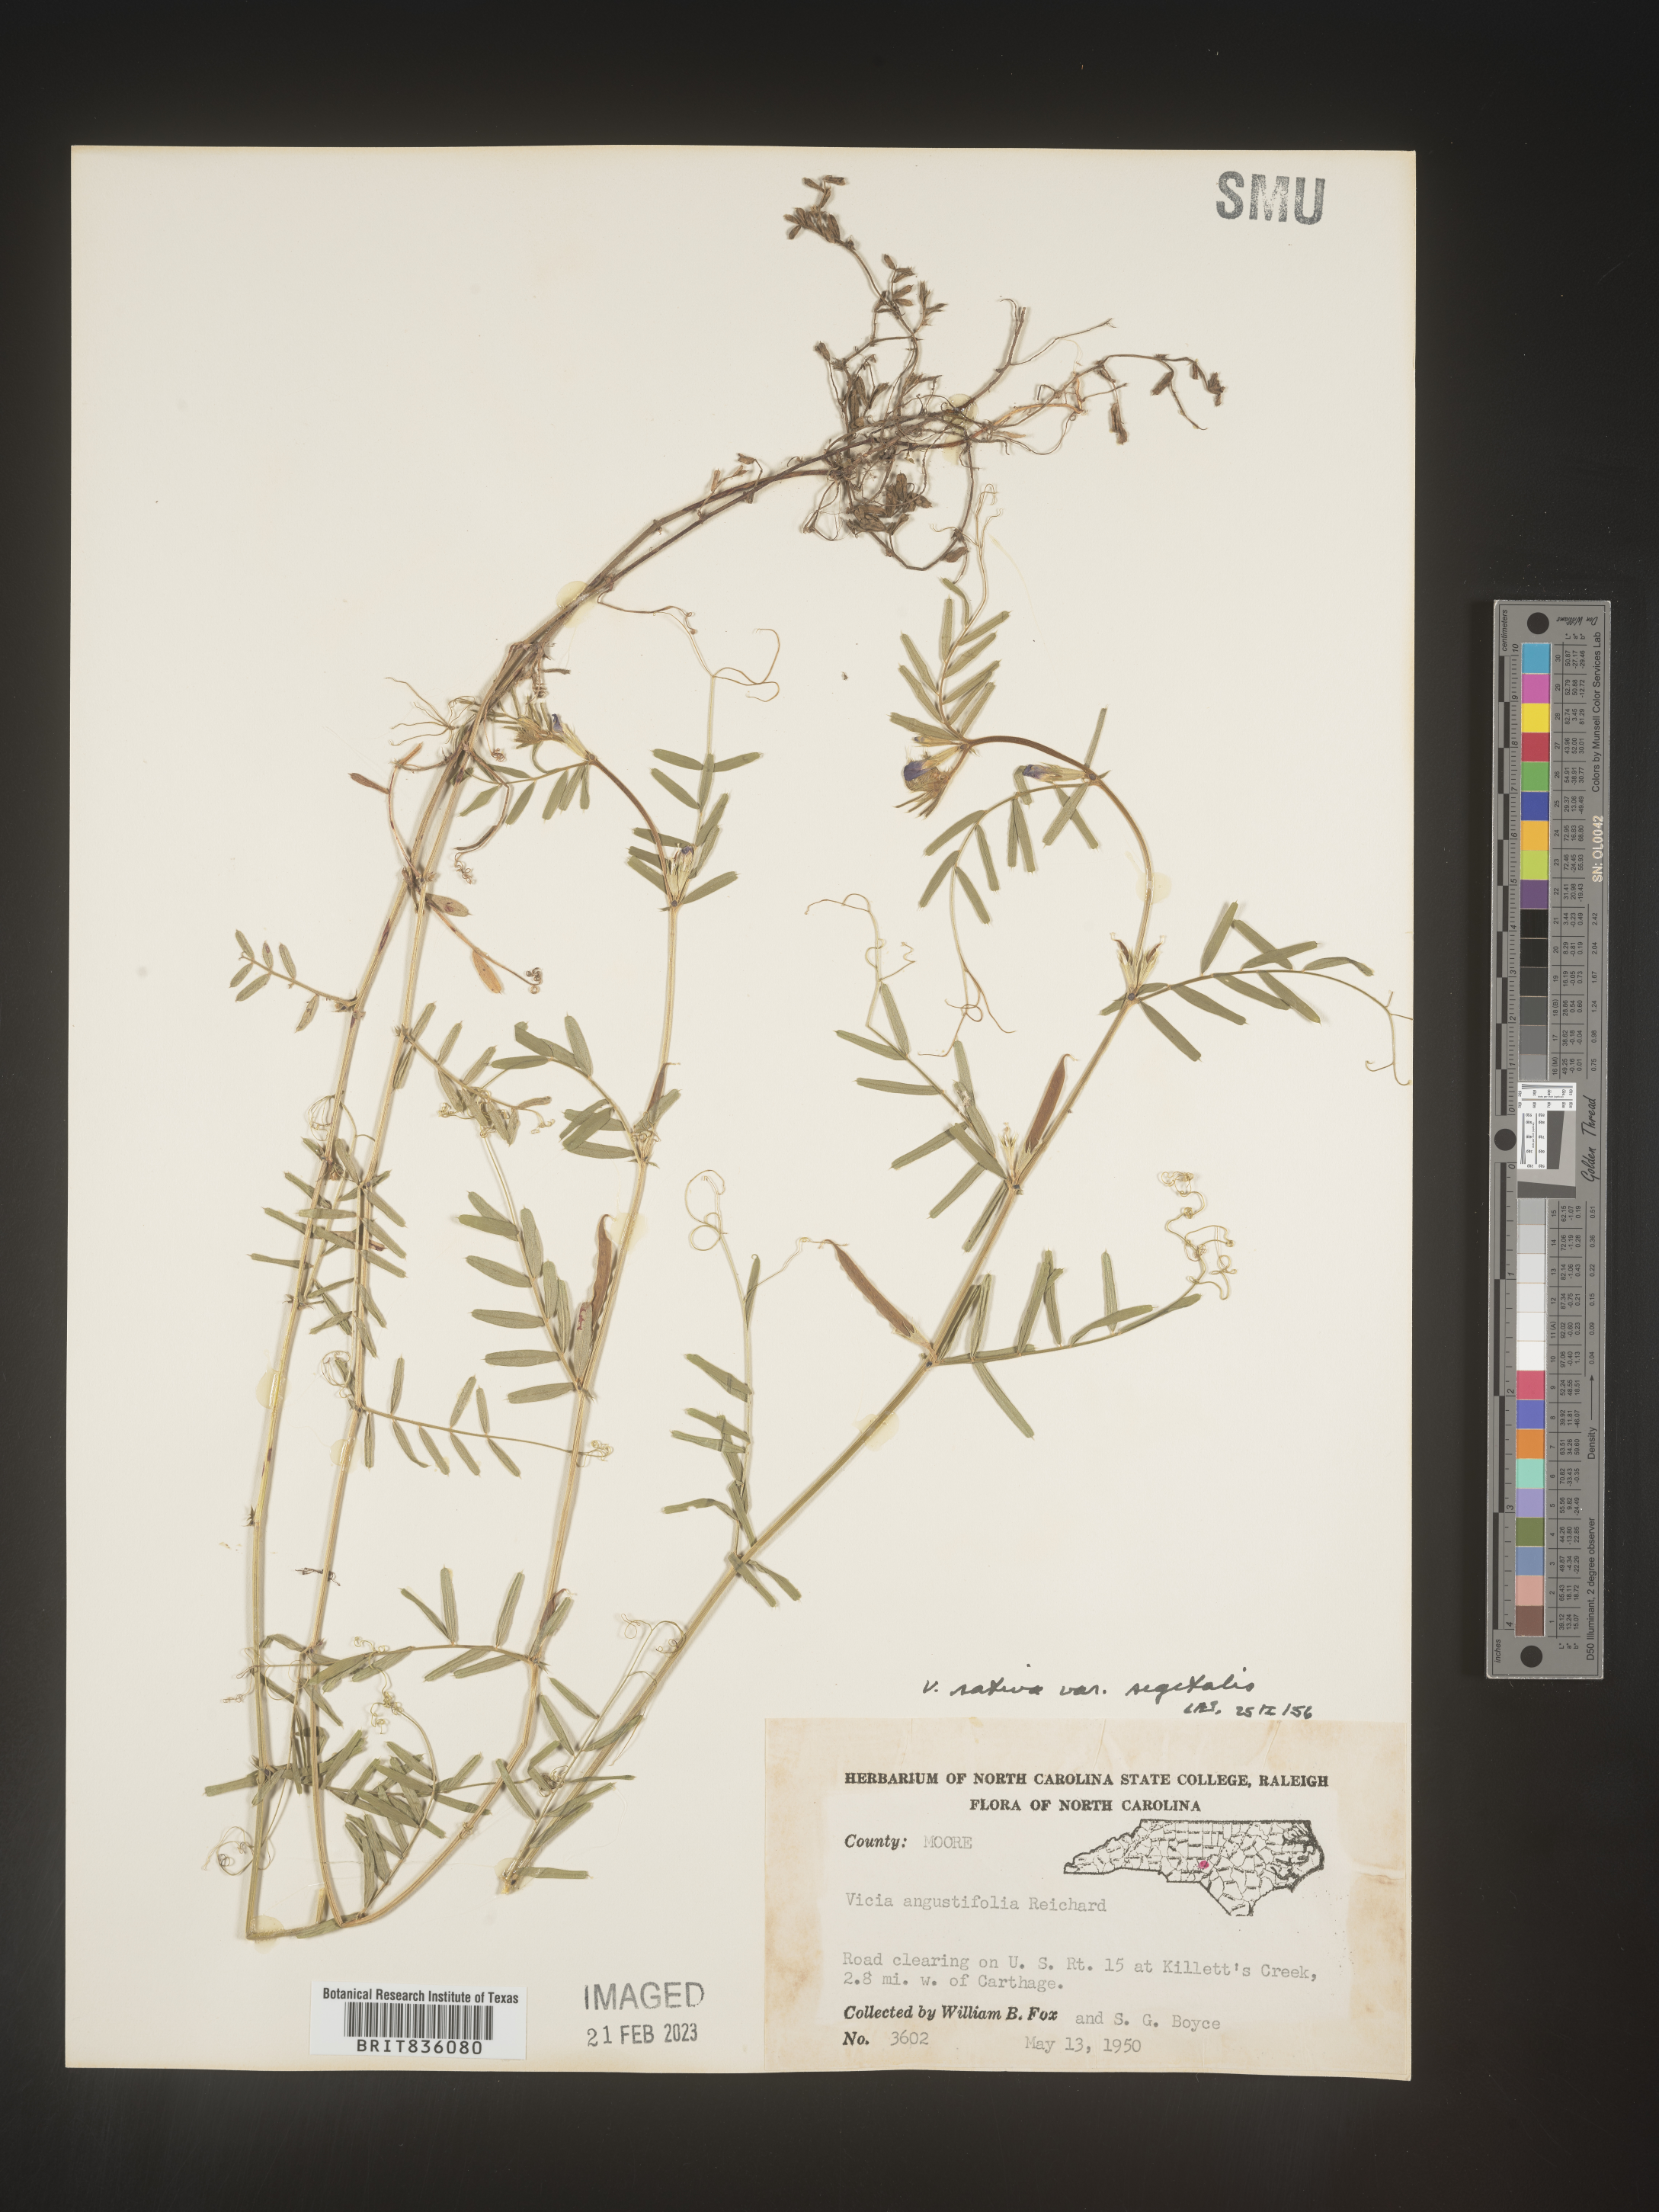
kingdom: Plantae
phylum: Tracheophyta
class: Magnoliopsida
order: Fabales
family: Fabaceae
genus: Vicia
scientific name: Vicia sativa
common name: Garden vetch
